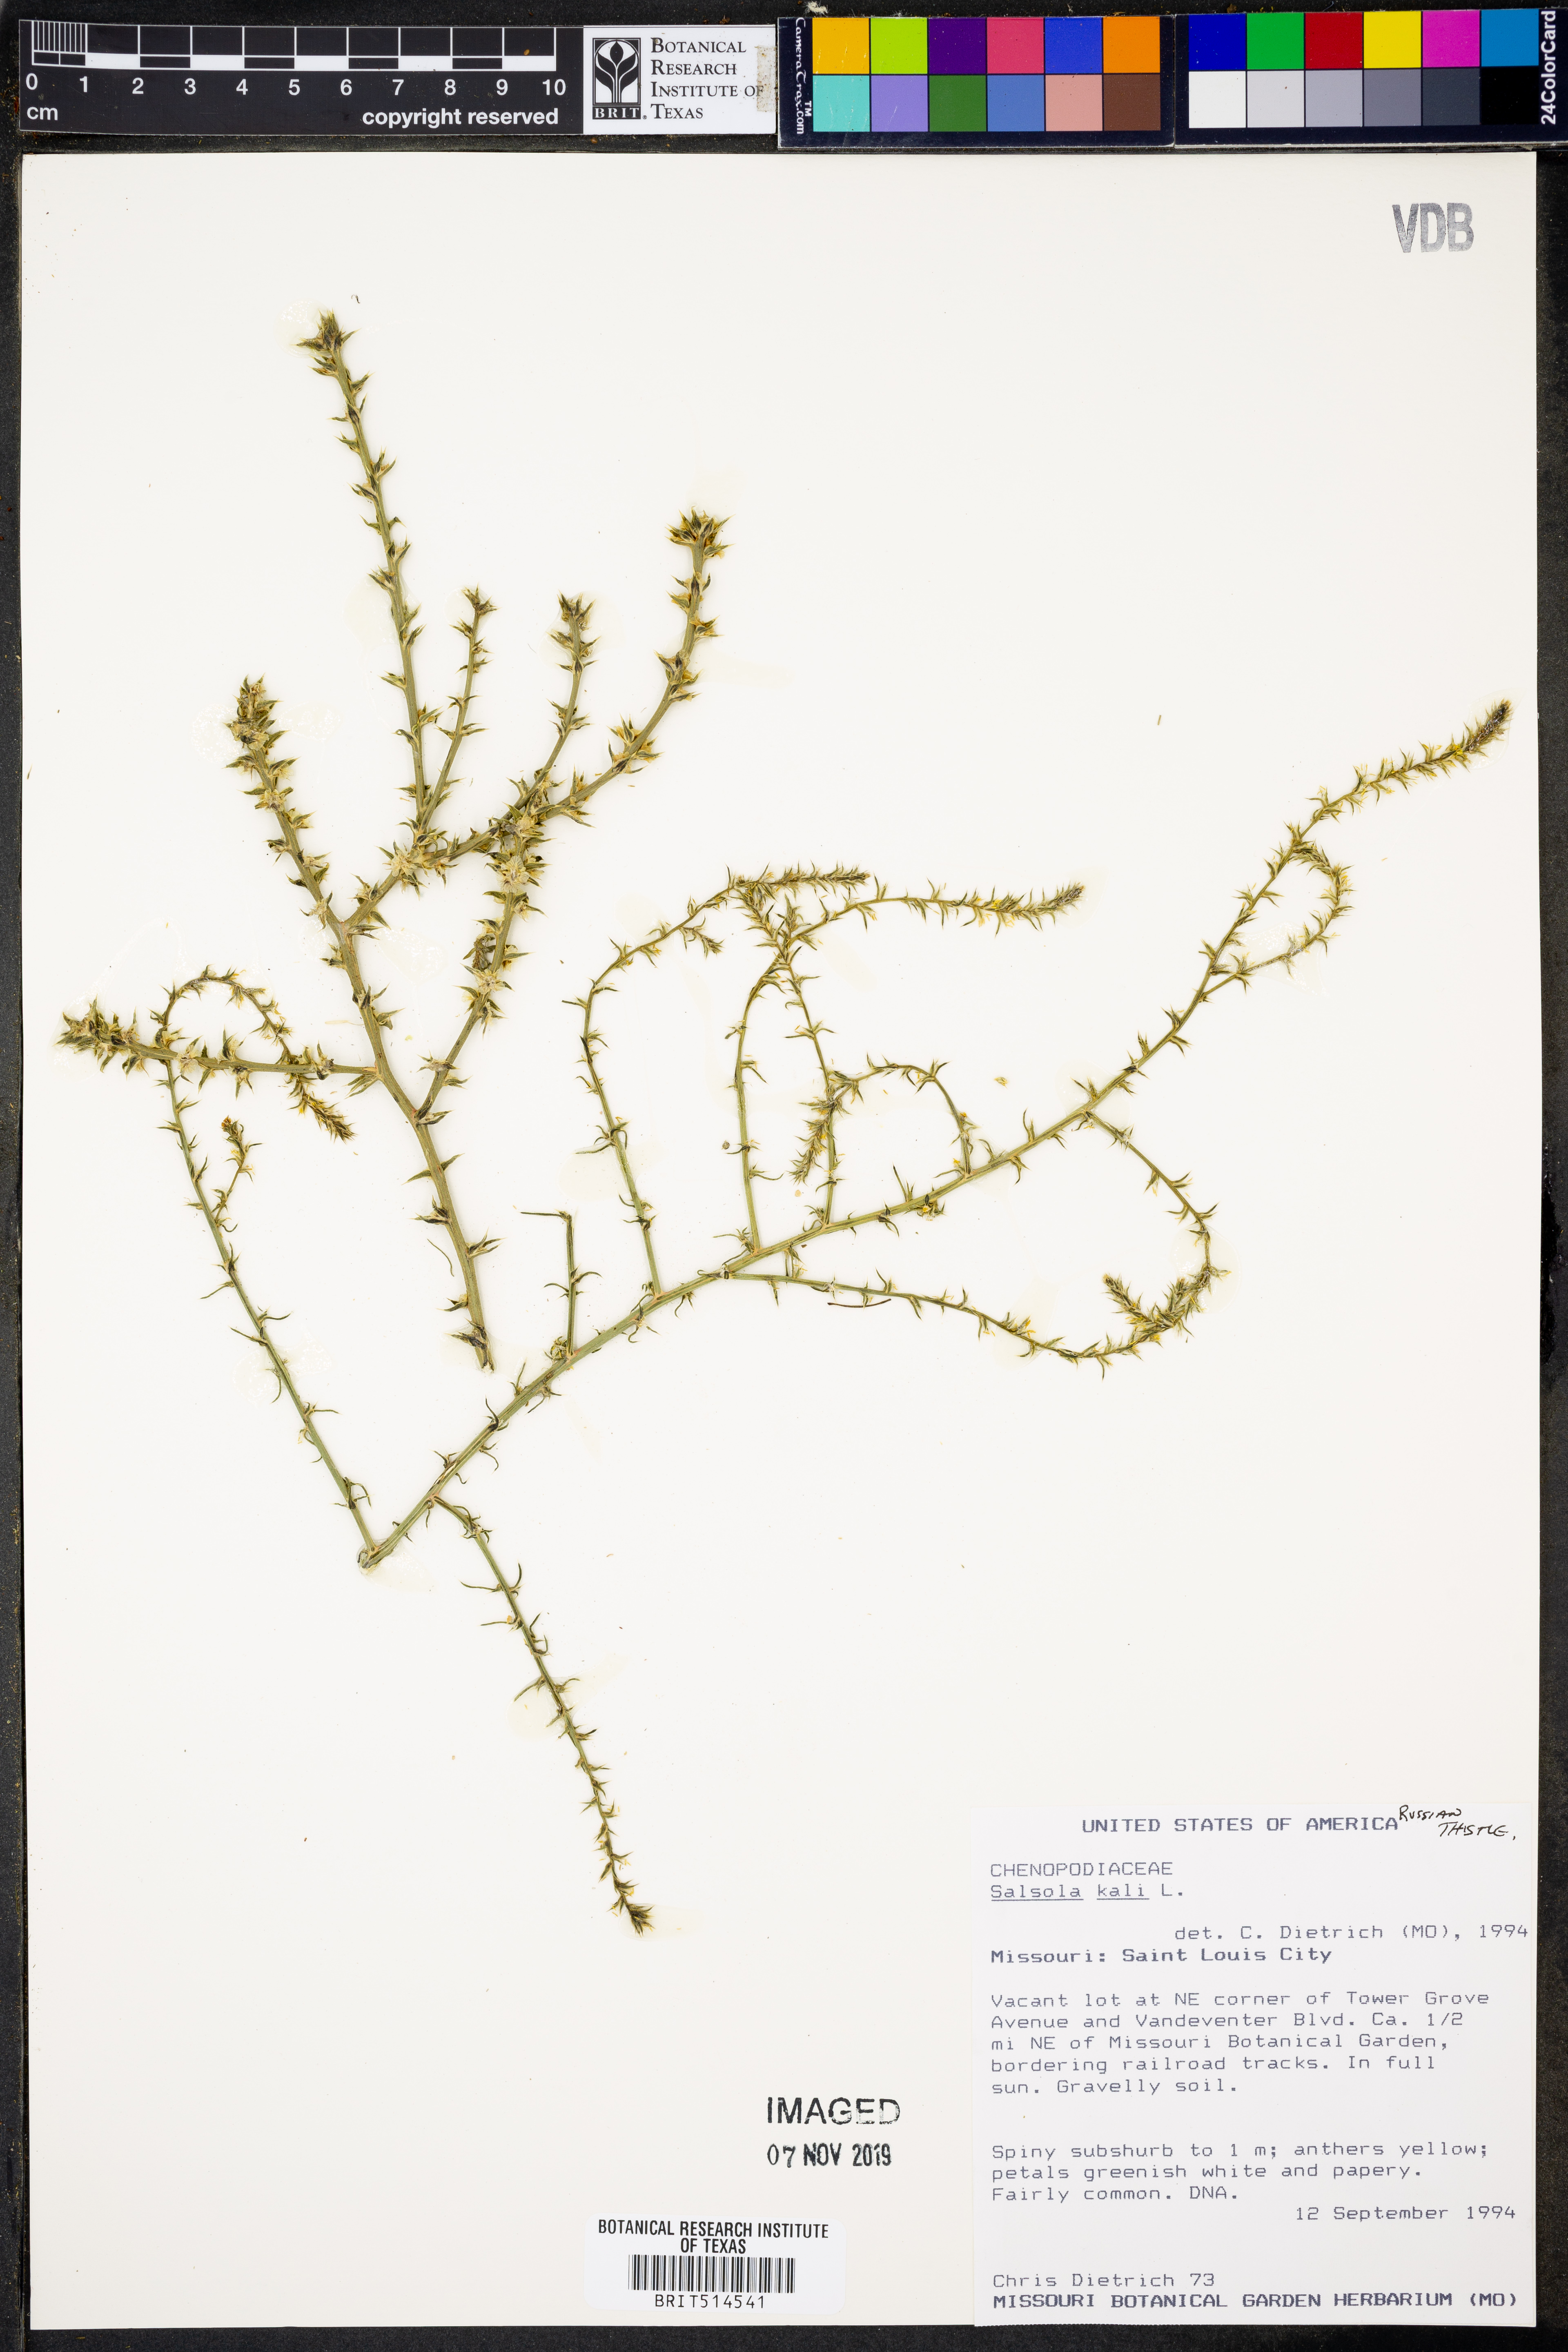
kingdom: Plantae
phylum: Tracheophyta
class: Magnoliopsida
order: Caryophyllales
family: Amaranthaceae
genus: Salsola
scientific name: Salsola kali
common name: Saltwort
